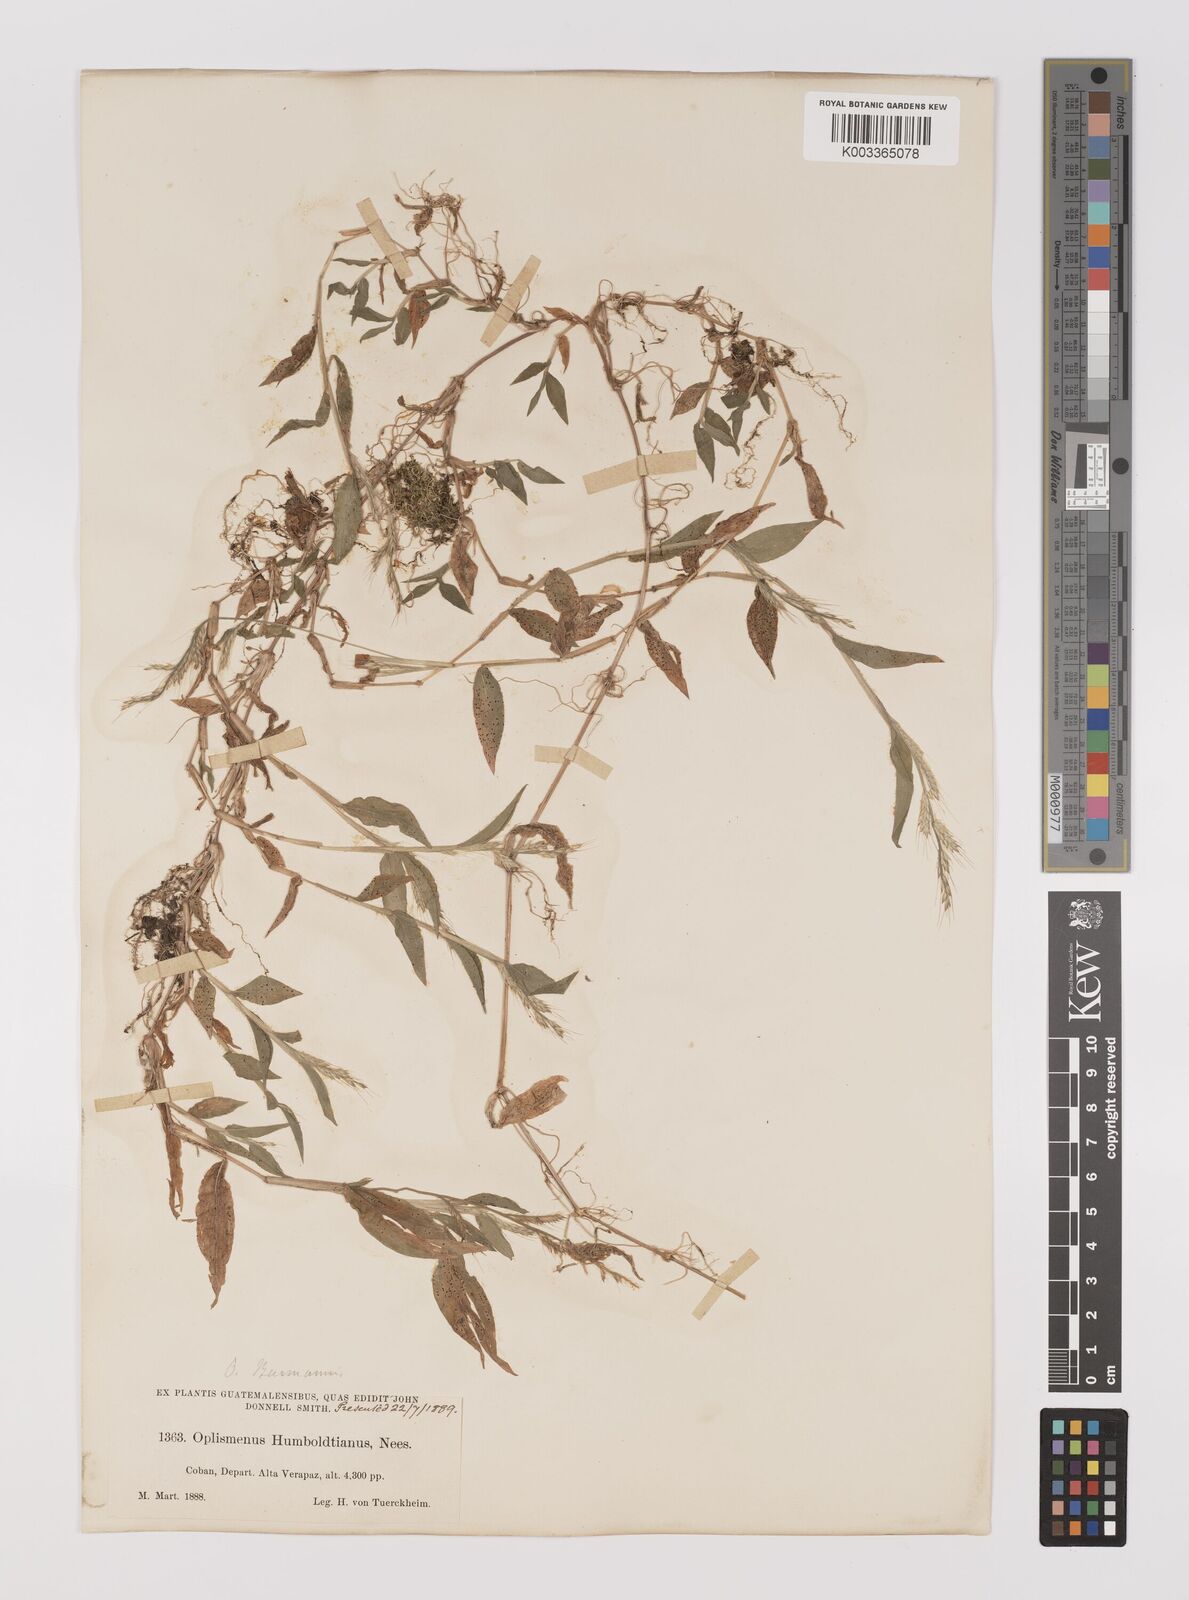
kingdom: Plantae
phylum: Tracheophyta
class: Liliopsida
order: Poales
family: Poaceae
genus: Oplismenus
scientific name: Oplismenus burmanni
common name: Burmann's basketgrass
